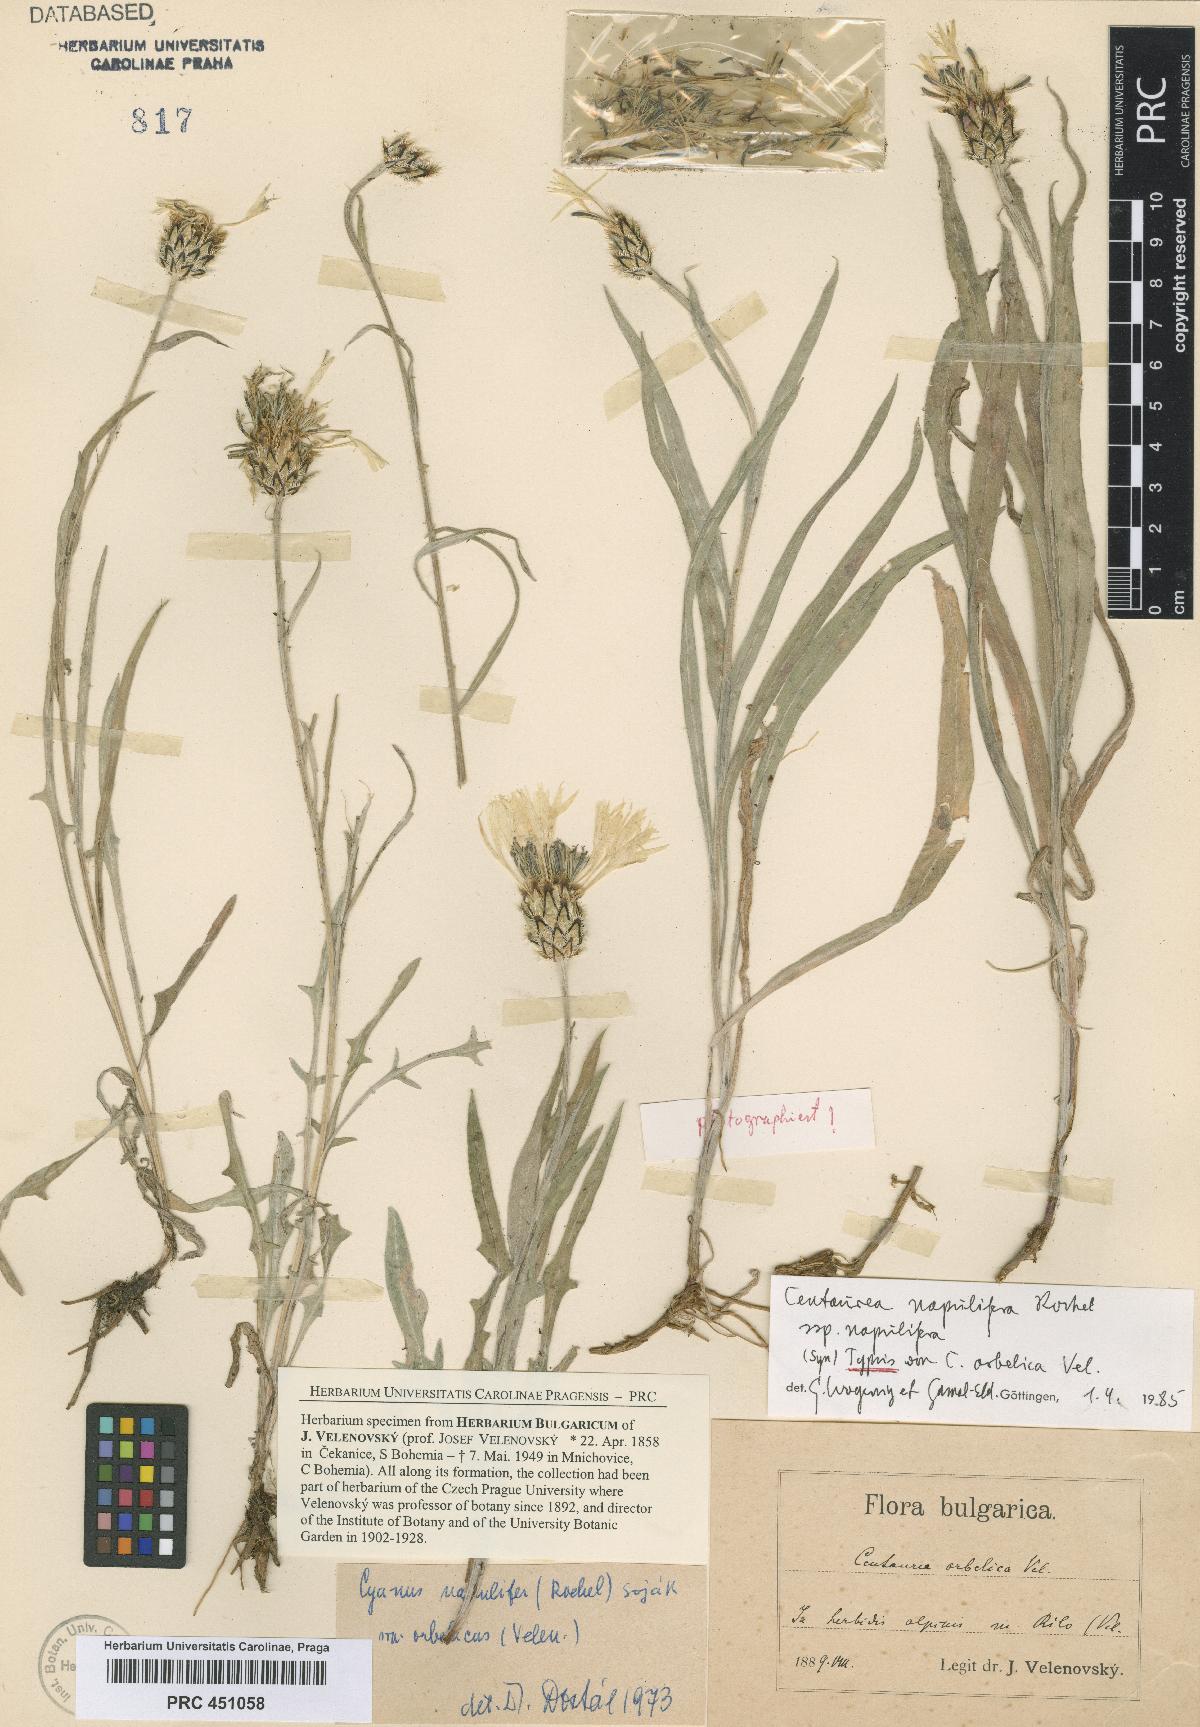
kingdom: Plantae
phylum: Tracheophyta
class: Magnoliopsida
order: Asterales
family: Asteraceae
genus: Centaurea
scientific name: Centaurea orbelica
